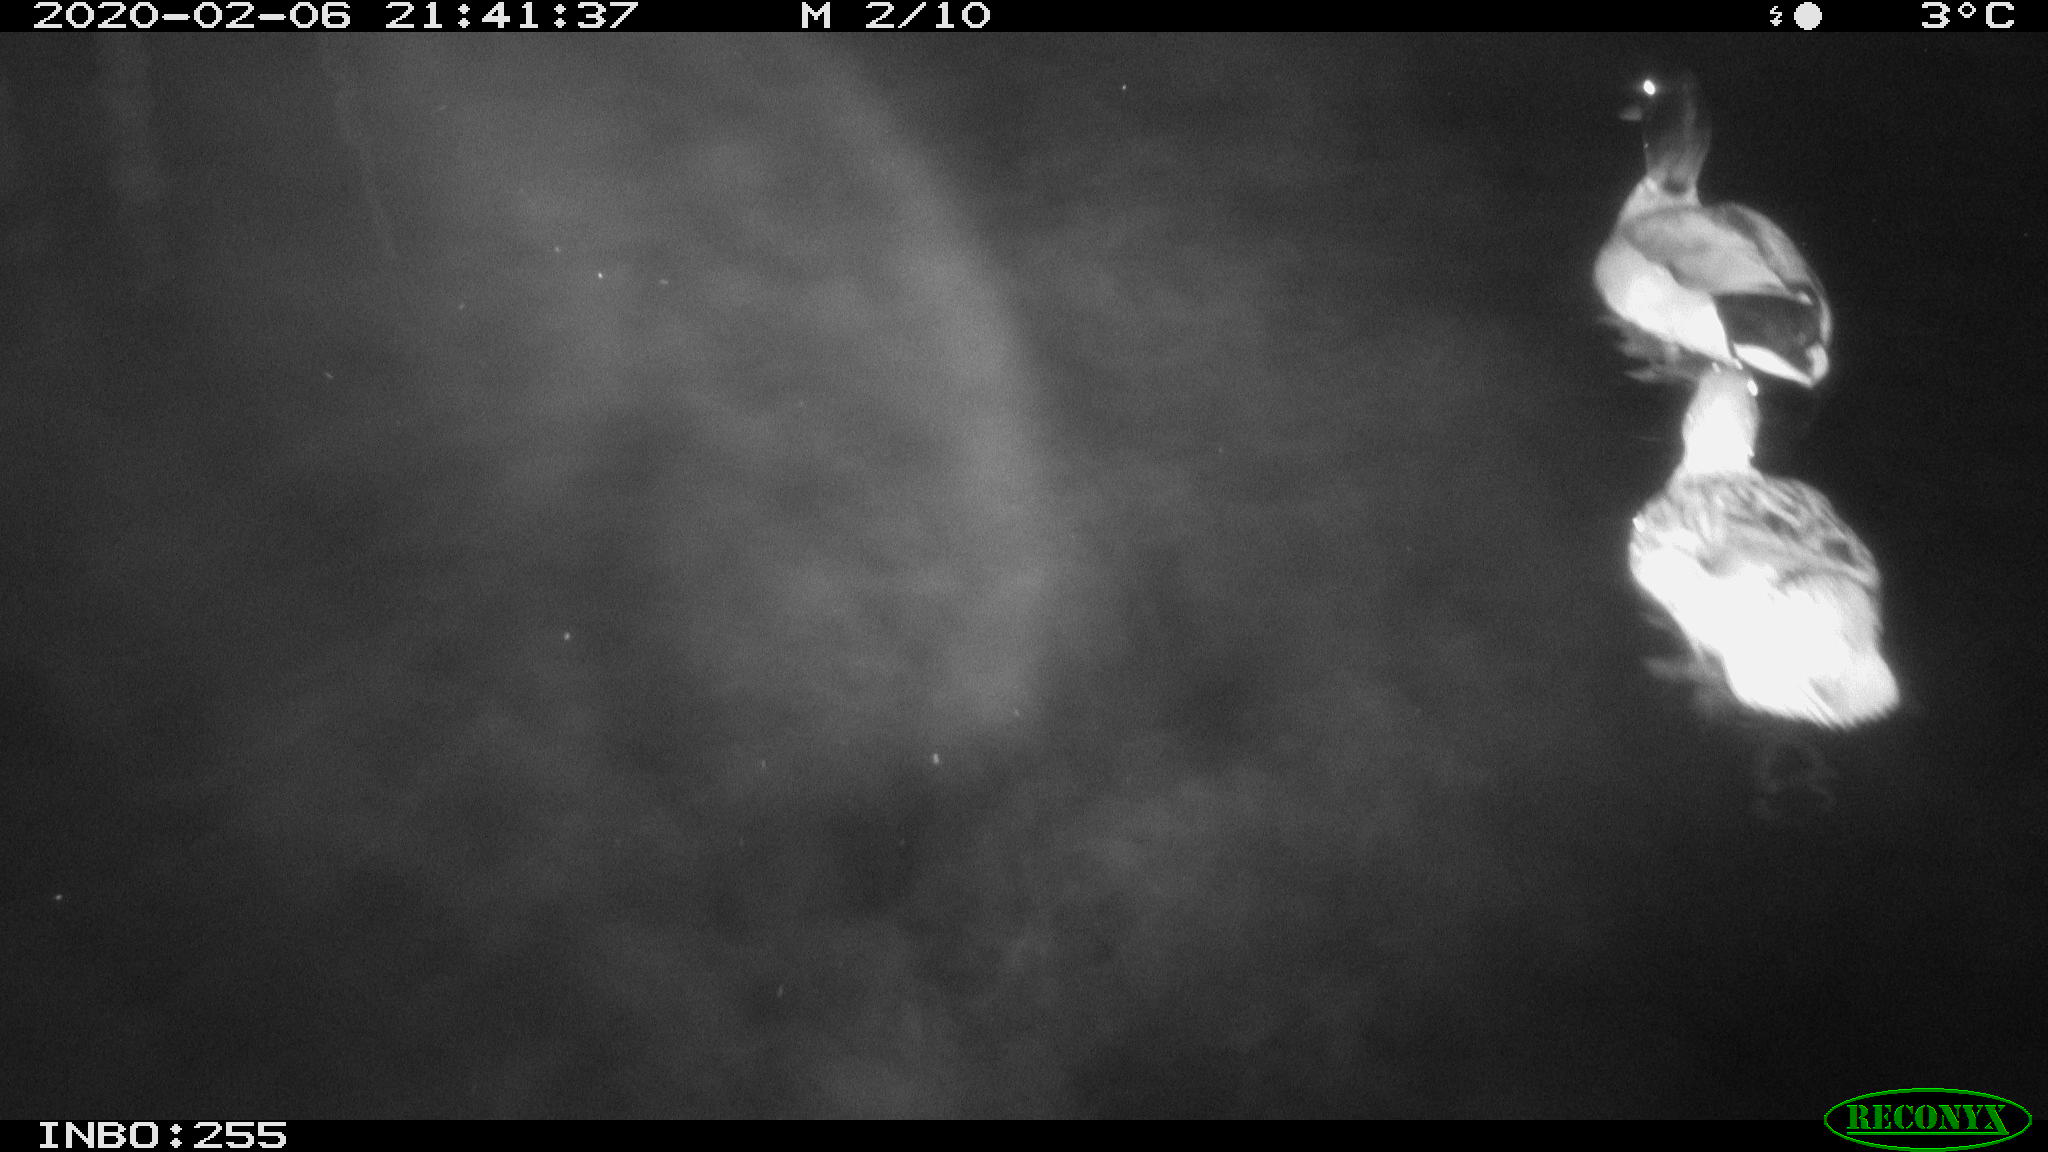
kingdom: Animalia
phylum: Chordata
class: Aves
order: Anseriformes
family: Anatidae
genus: Anas
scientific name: Anas platyrhynchos
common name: Mallard
